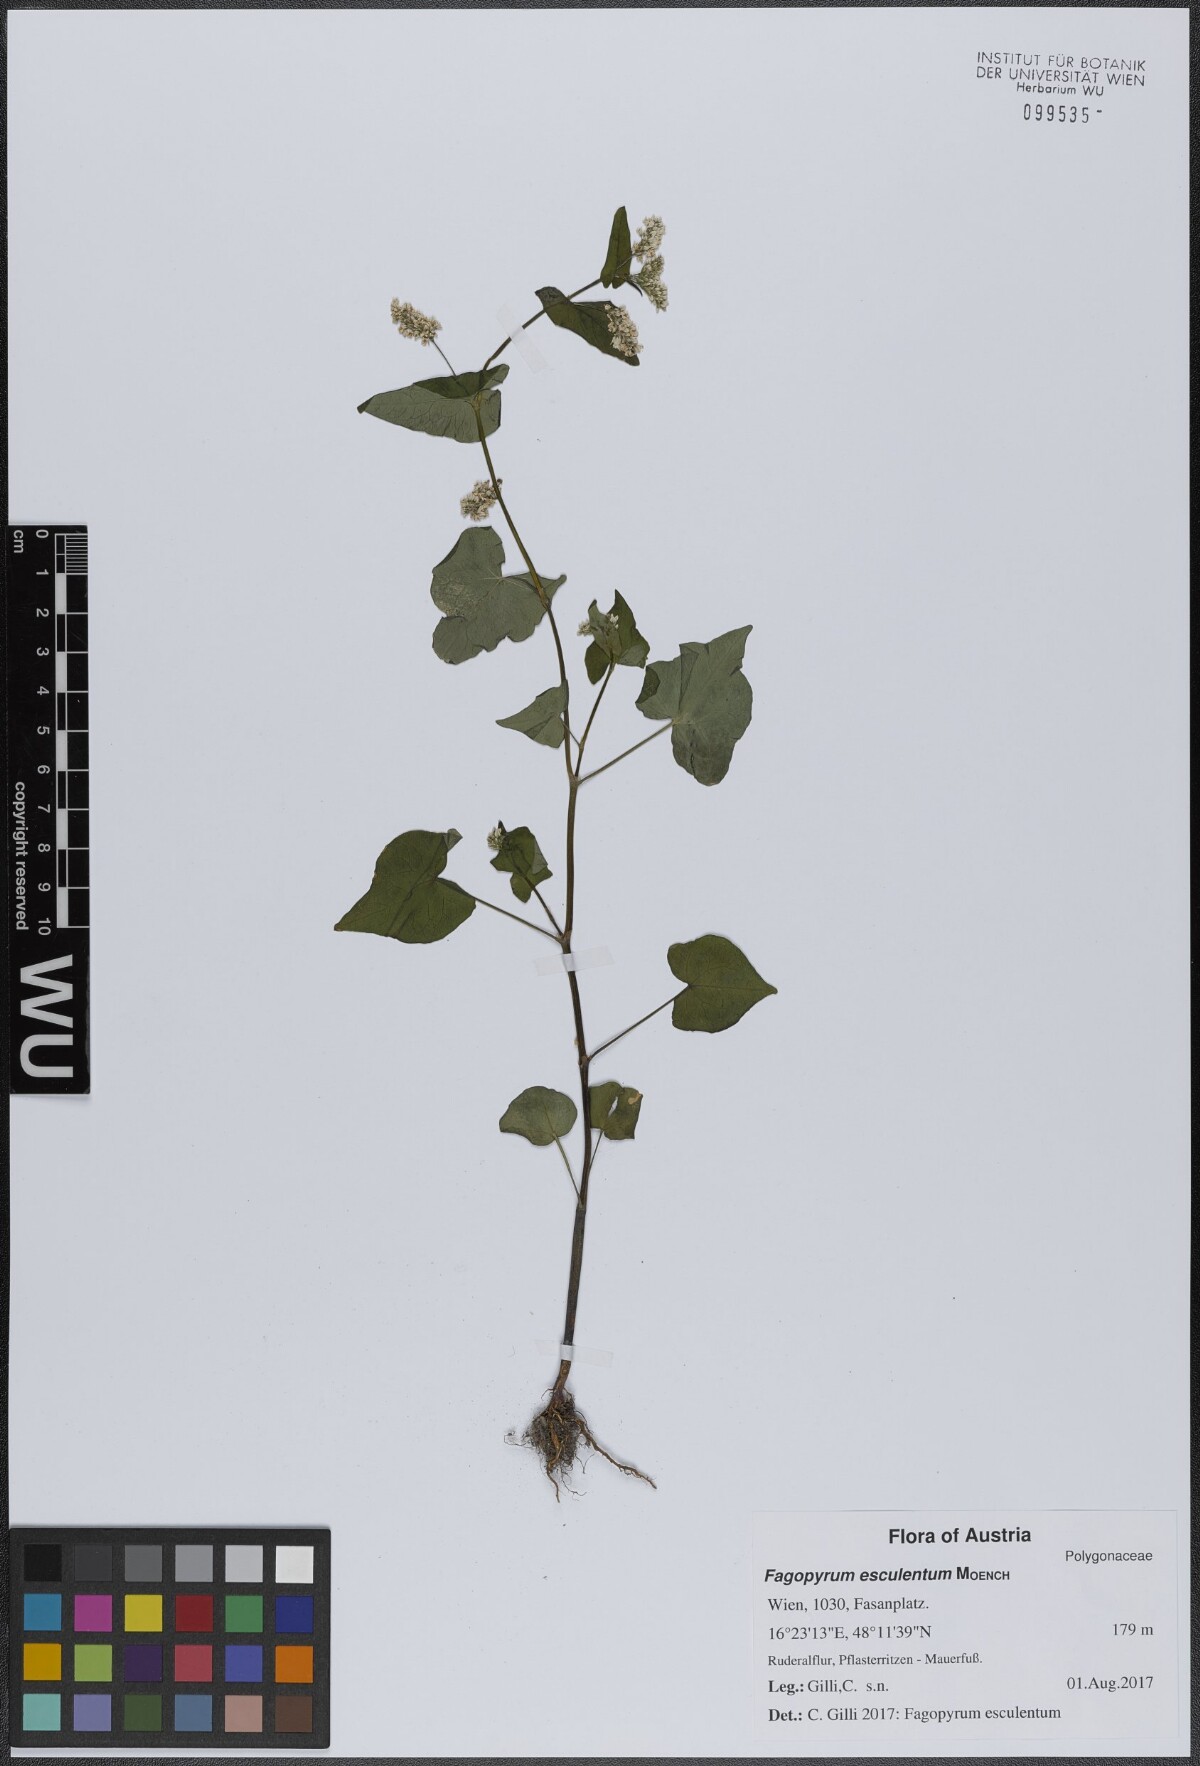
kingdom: Plantae
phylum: Tracheophyta
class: Magnoliopsida
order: Caryophyllales
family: Polygonaceae
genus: Fagopyrum
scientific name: Fagopyrum esculentum
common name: Buckwheat
